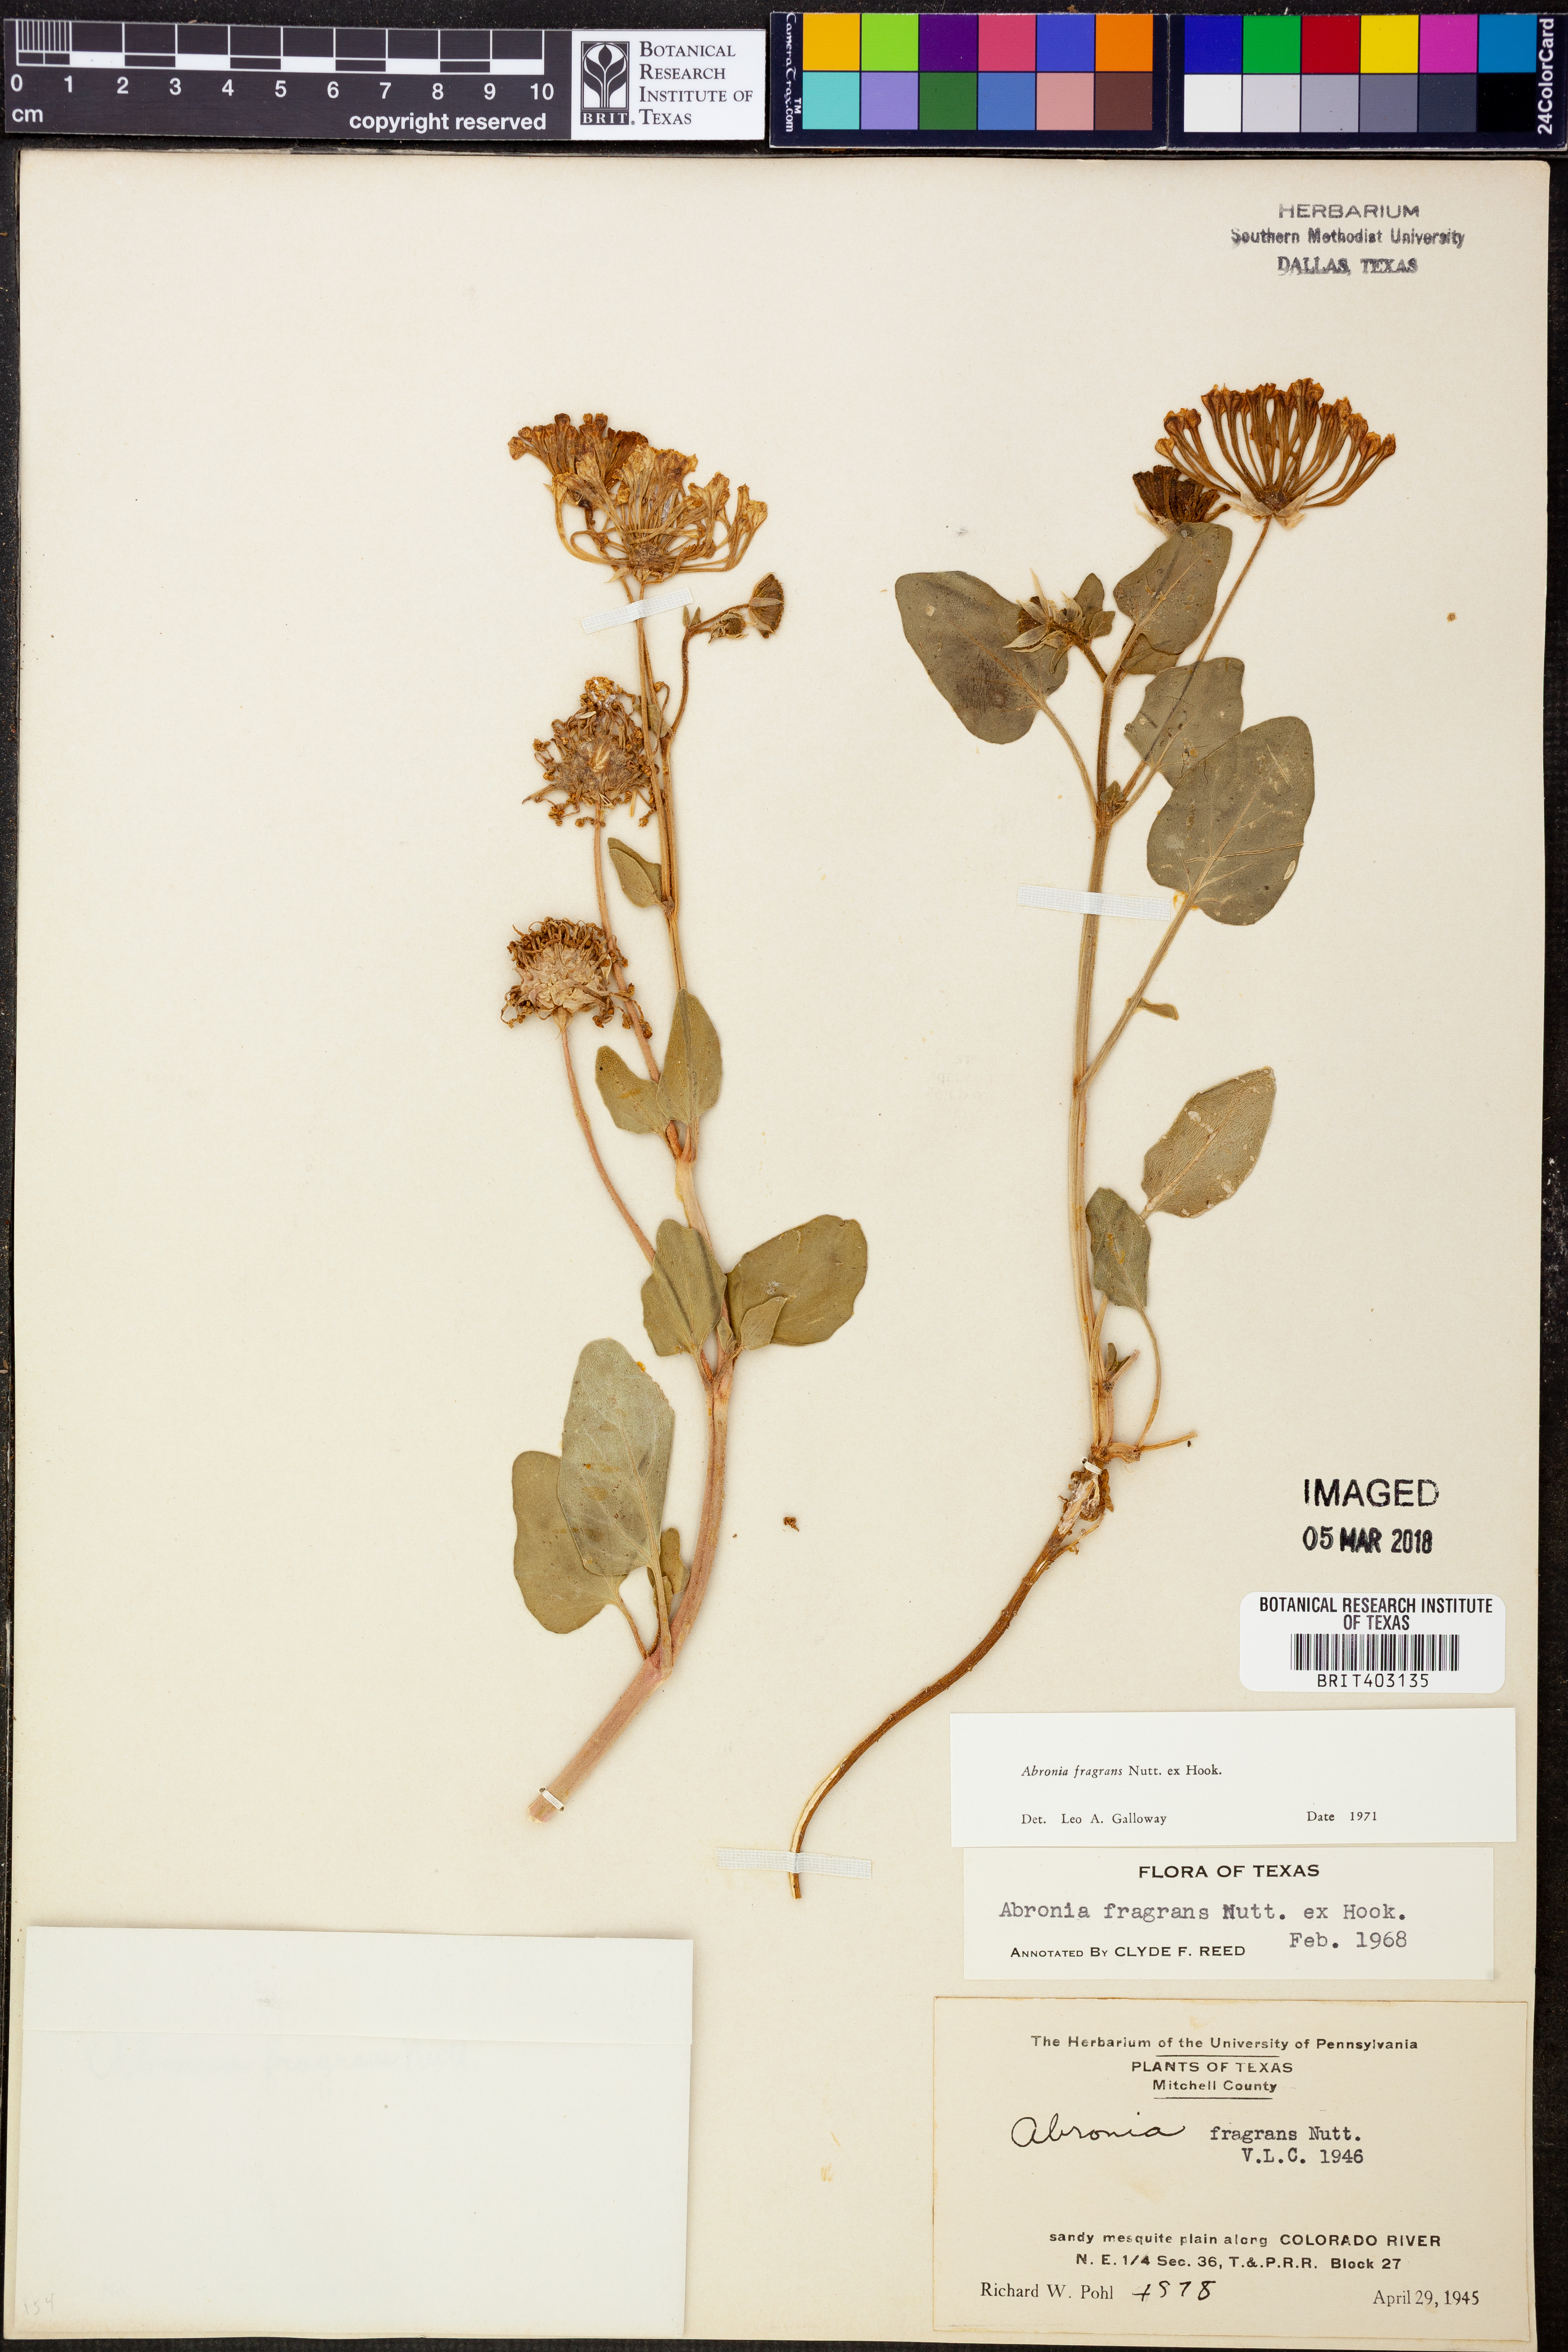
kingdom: Plantae
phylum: Tracheophyta
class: Magnoliopsida
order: Caryophyllales
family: Nyctaginaceae
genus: Abronia
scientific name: Abronia fragrans
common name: Fragrant sand-verbena
